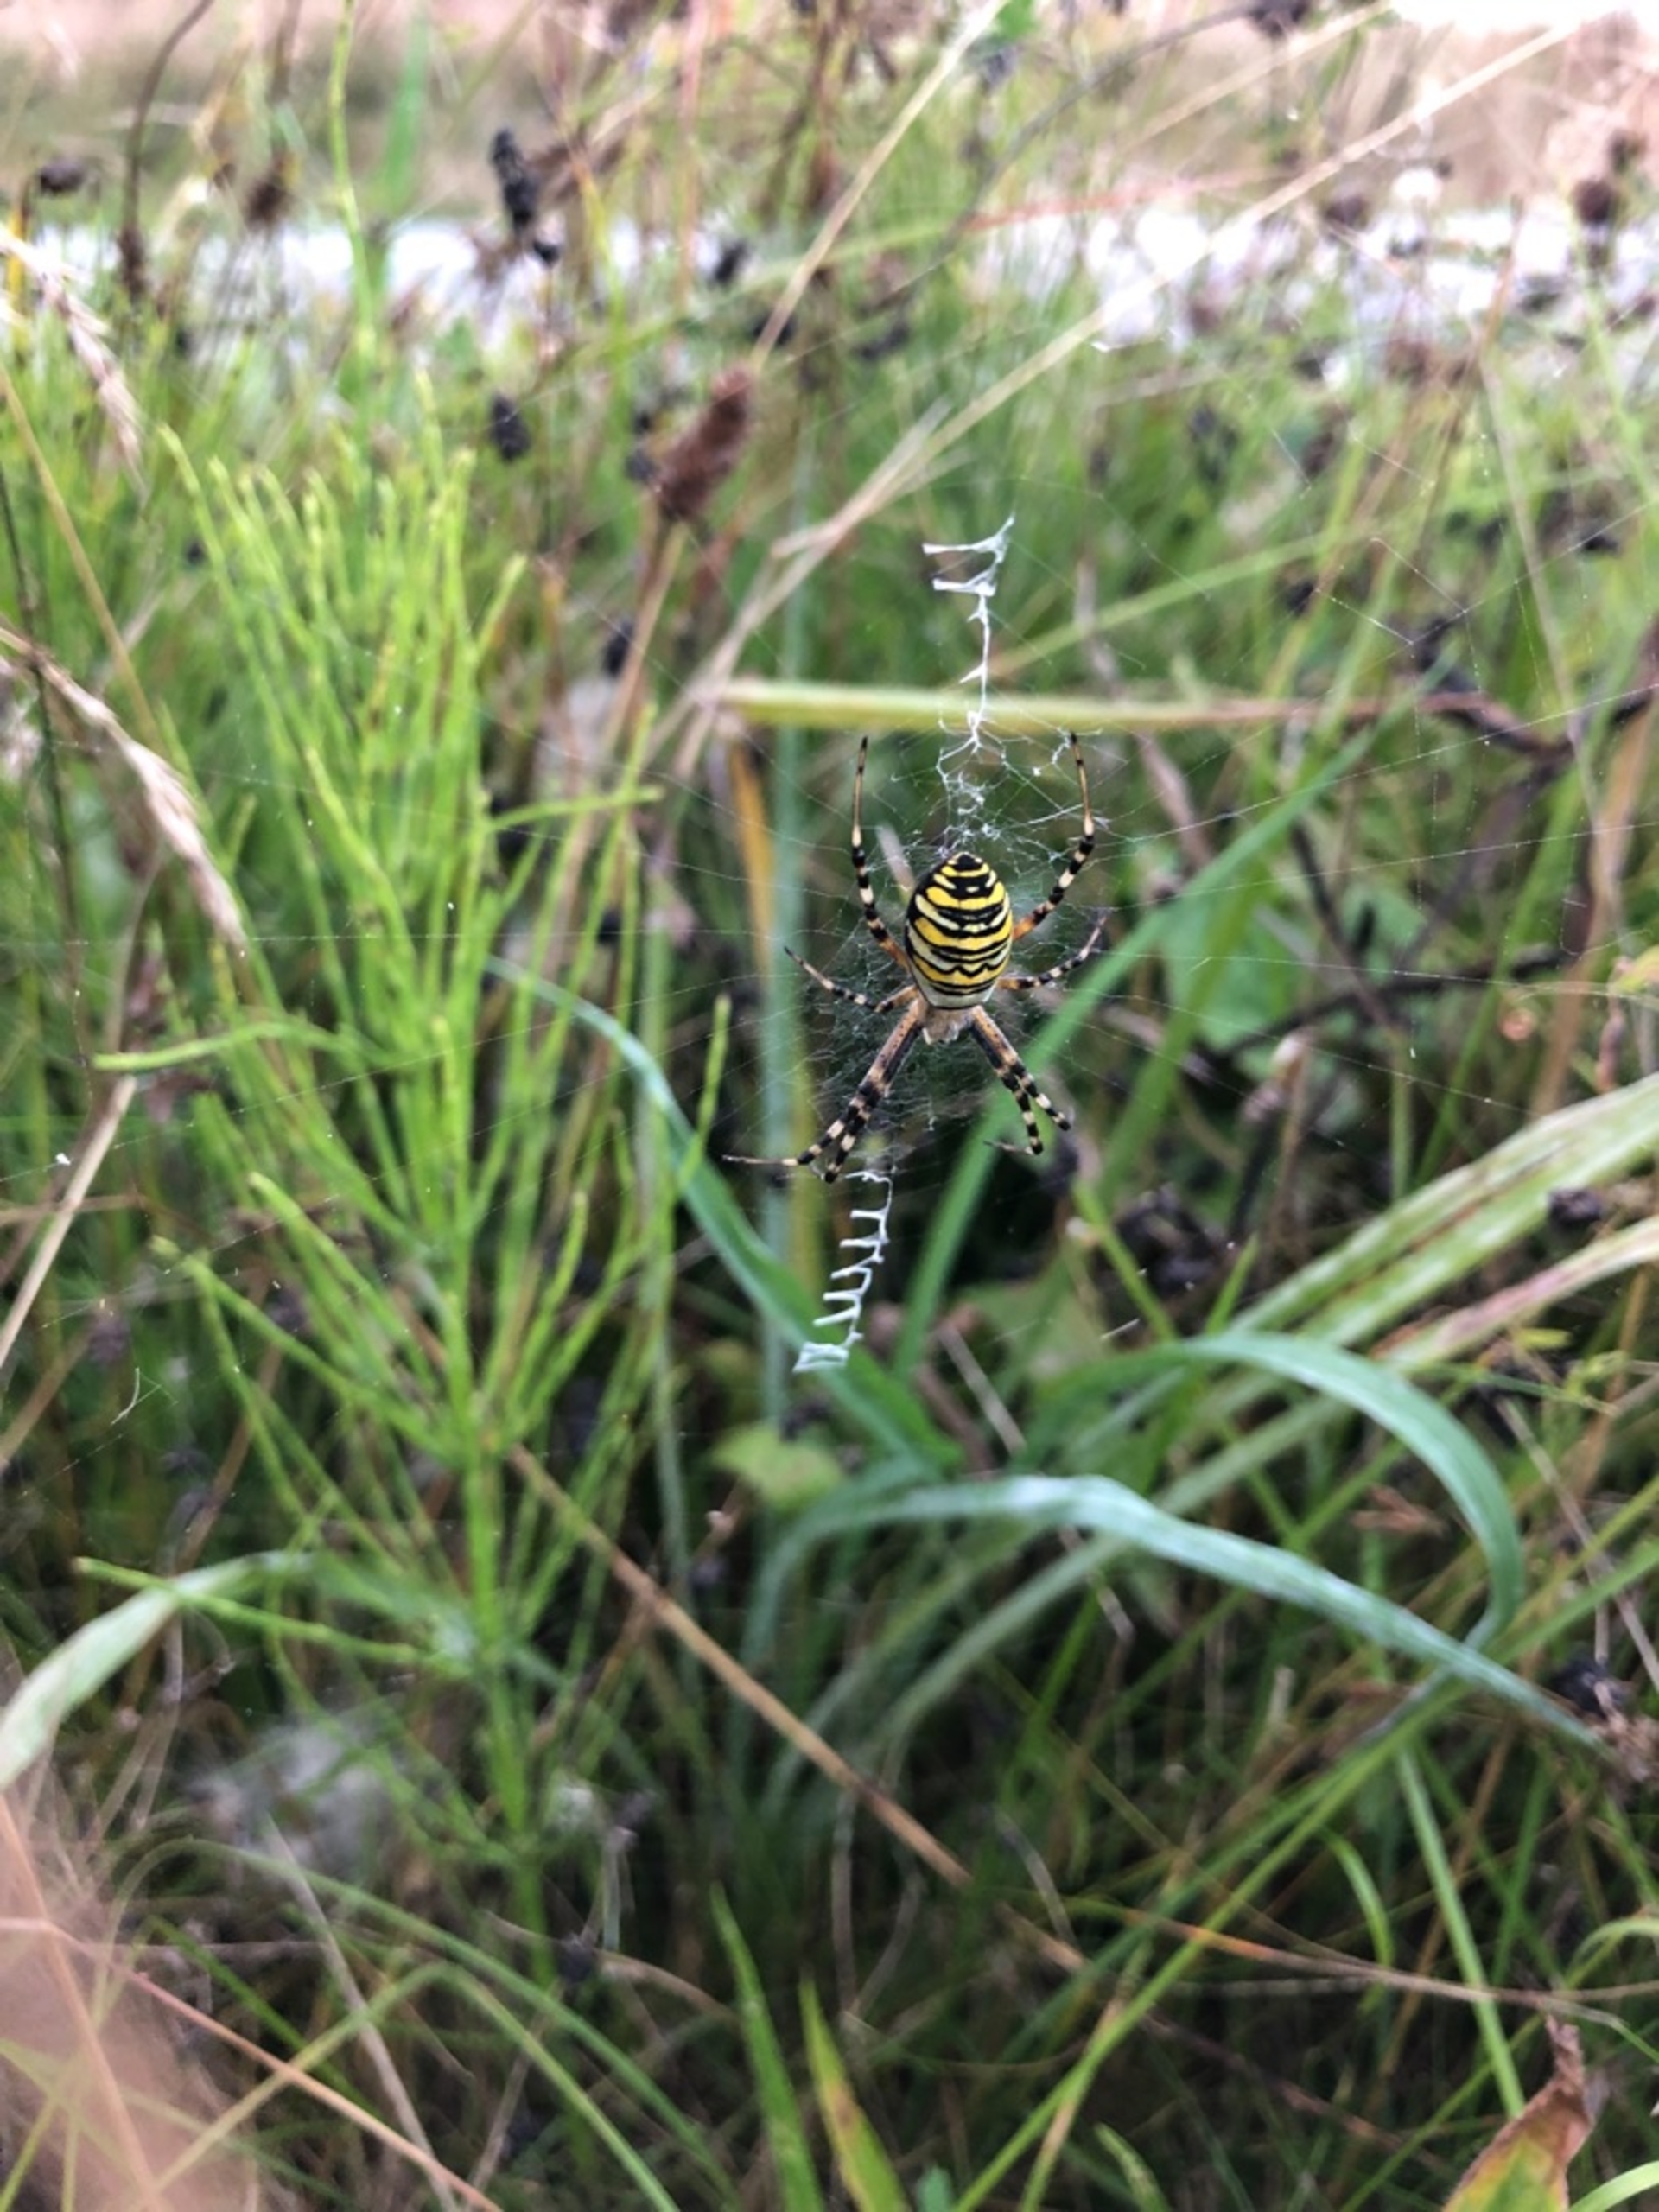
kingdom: Animalia
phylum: Arthropoda
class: Arachnida
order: Araneae
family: Araneidae
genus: Argiope
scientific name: Argiope bruennichi
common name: Hvepseedderkop
